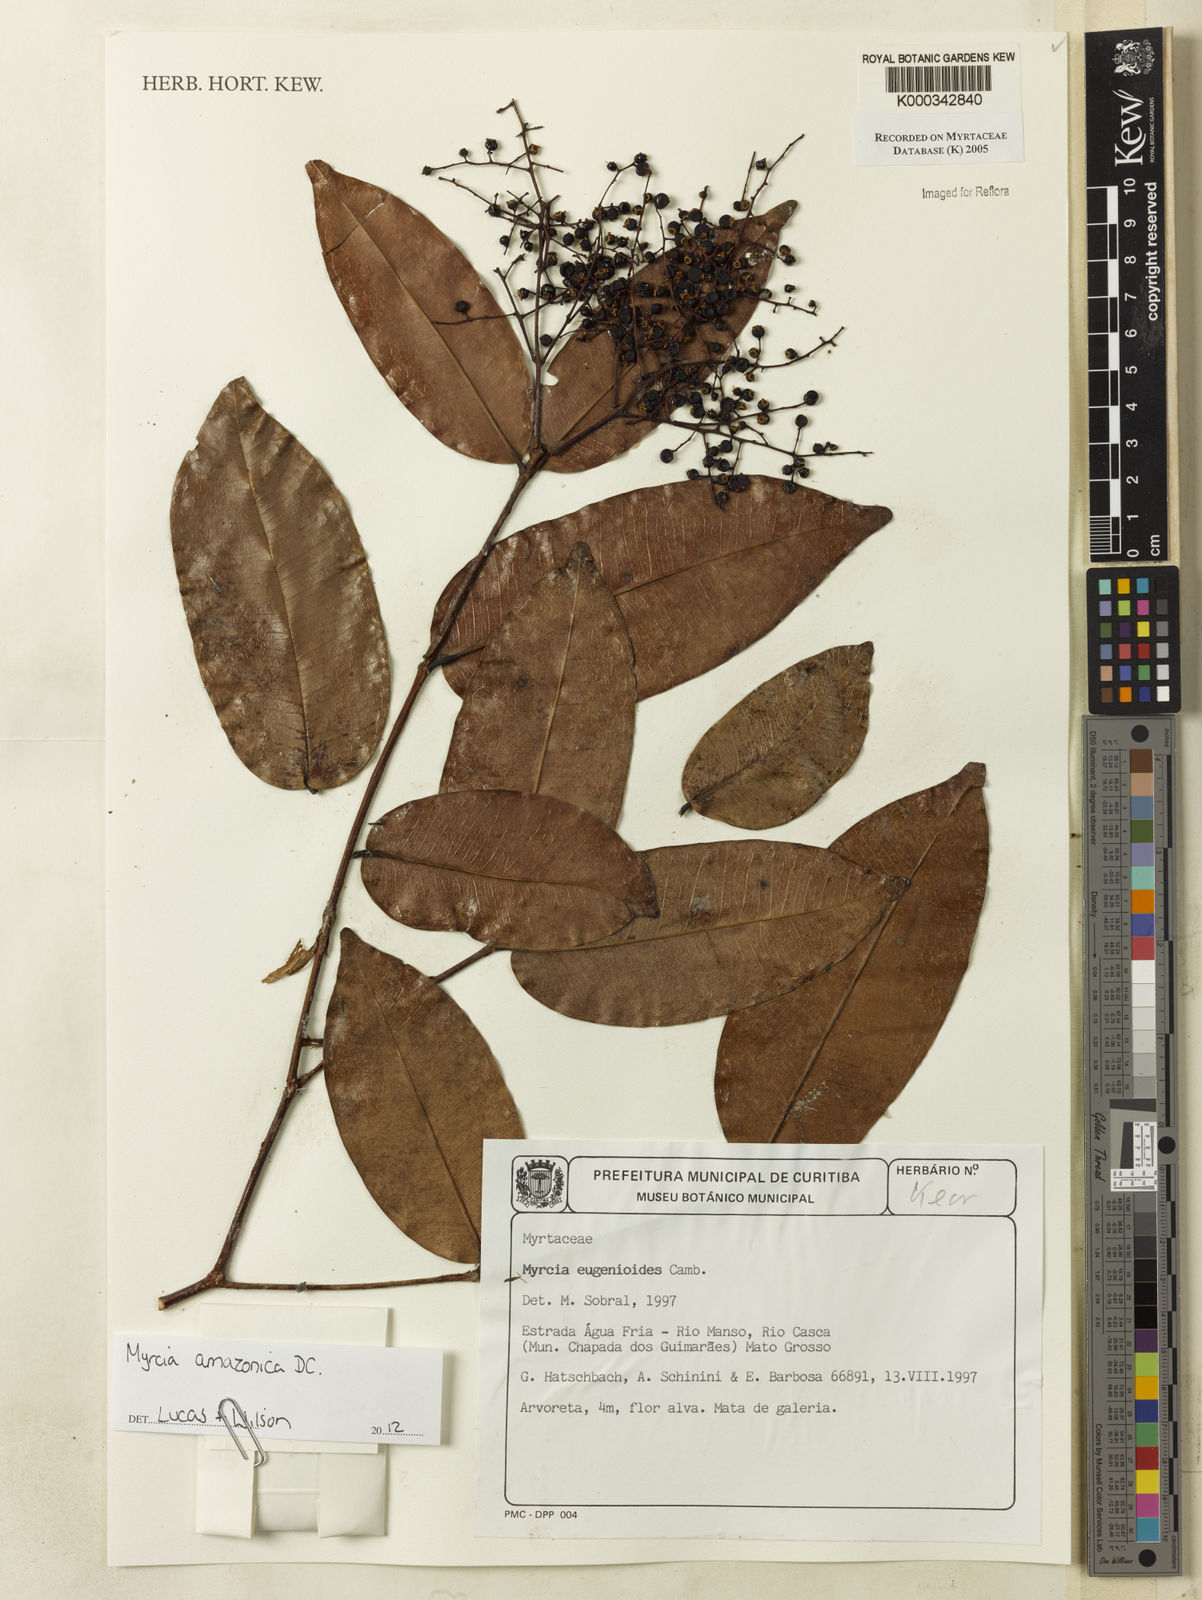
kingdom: Plantae
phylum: Tracheophyta
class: Magnoliopsida
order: Myrtales
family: Myrtaceae
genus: Myrcia
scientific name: Myrcia eugenioides
